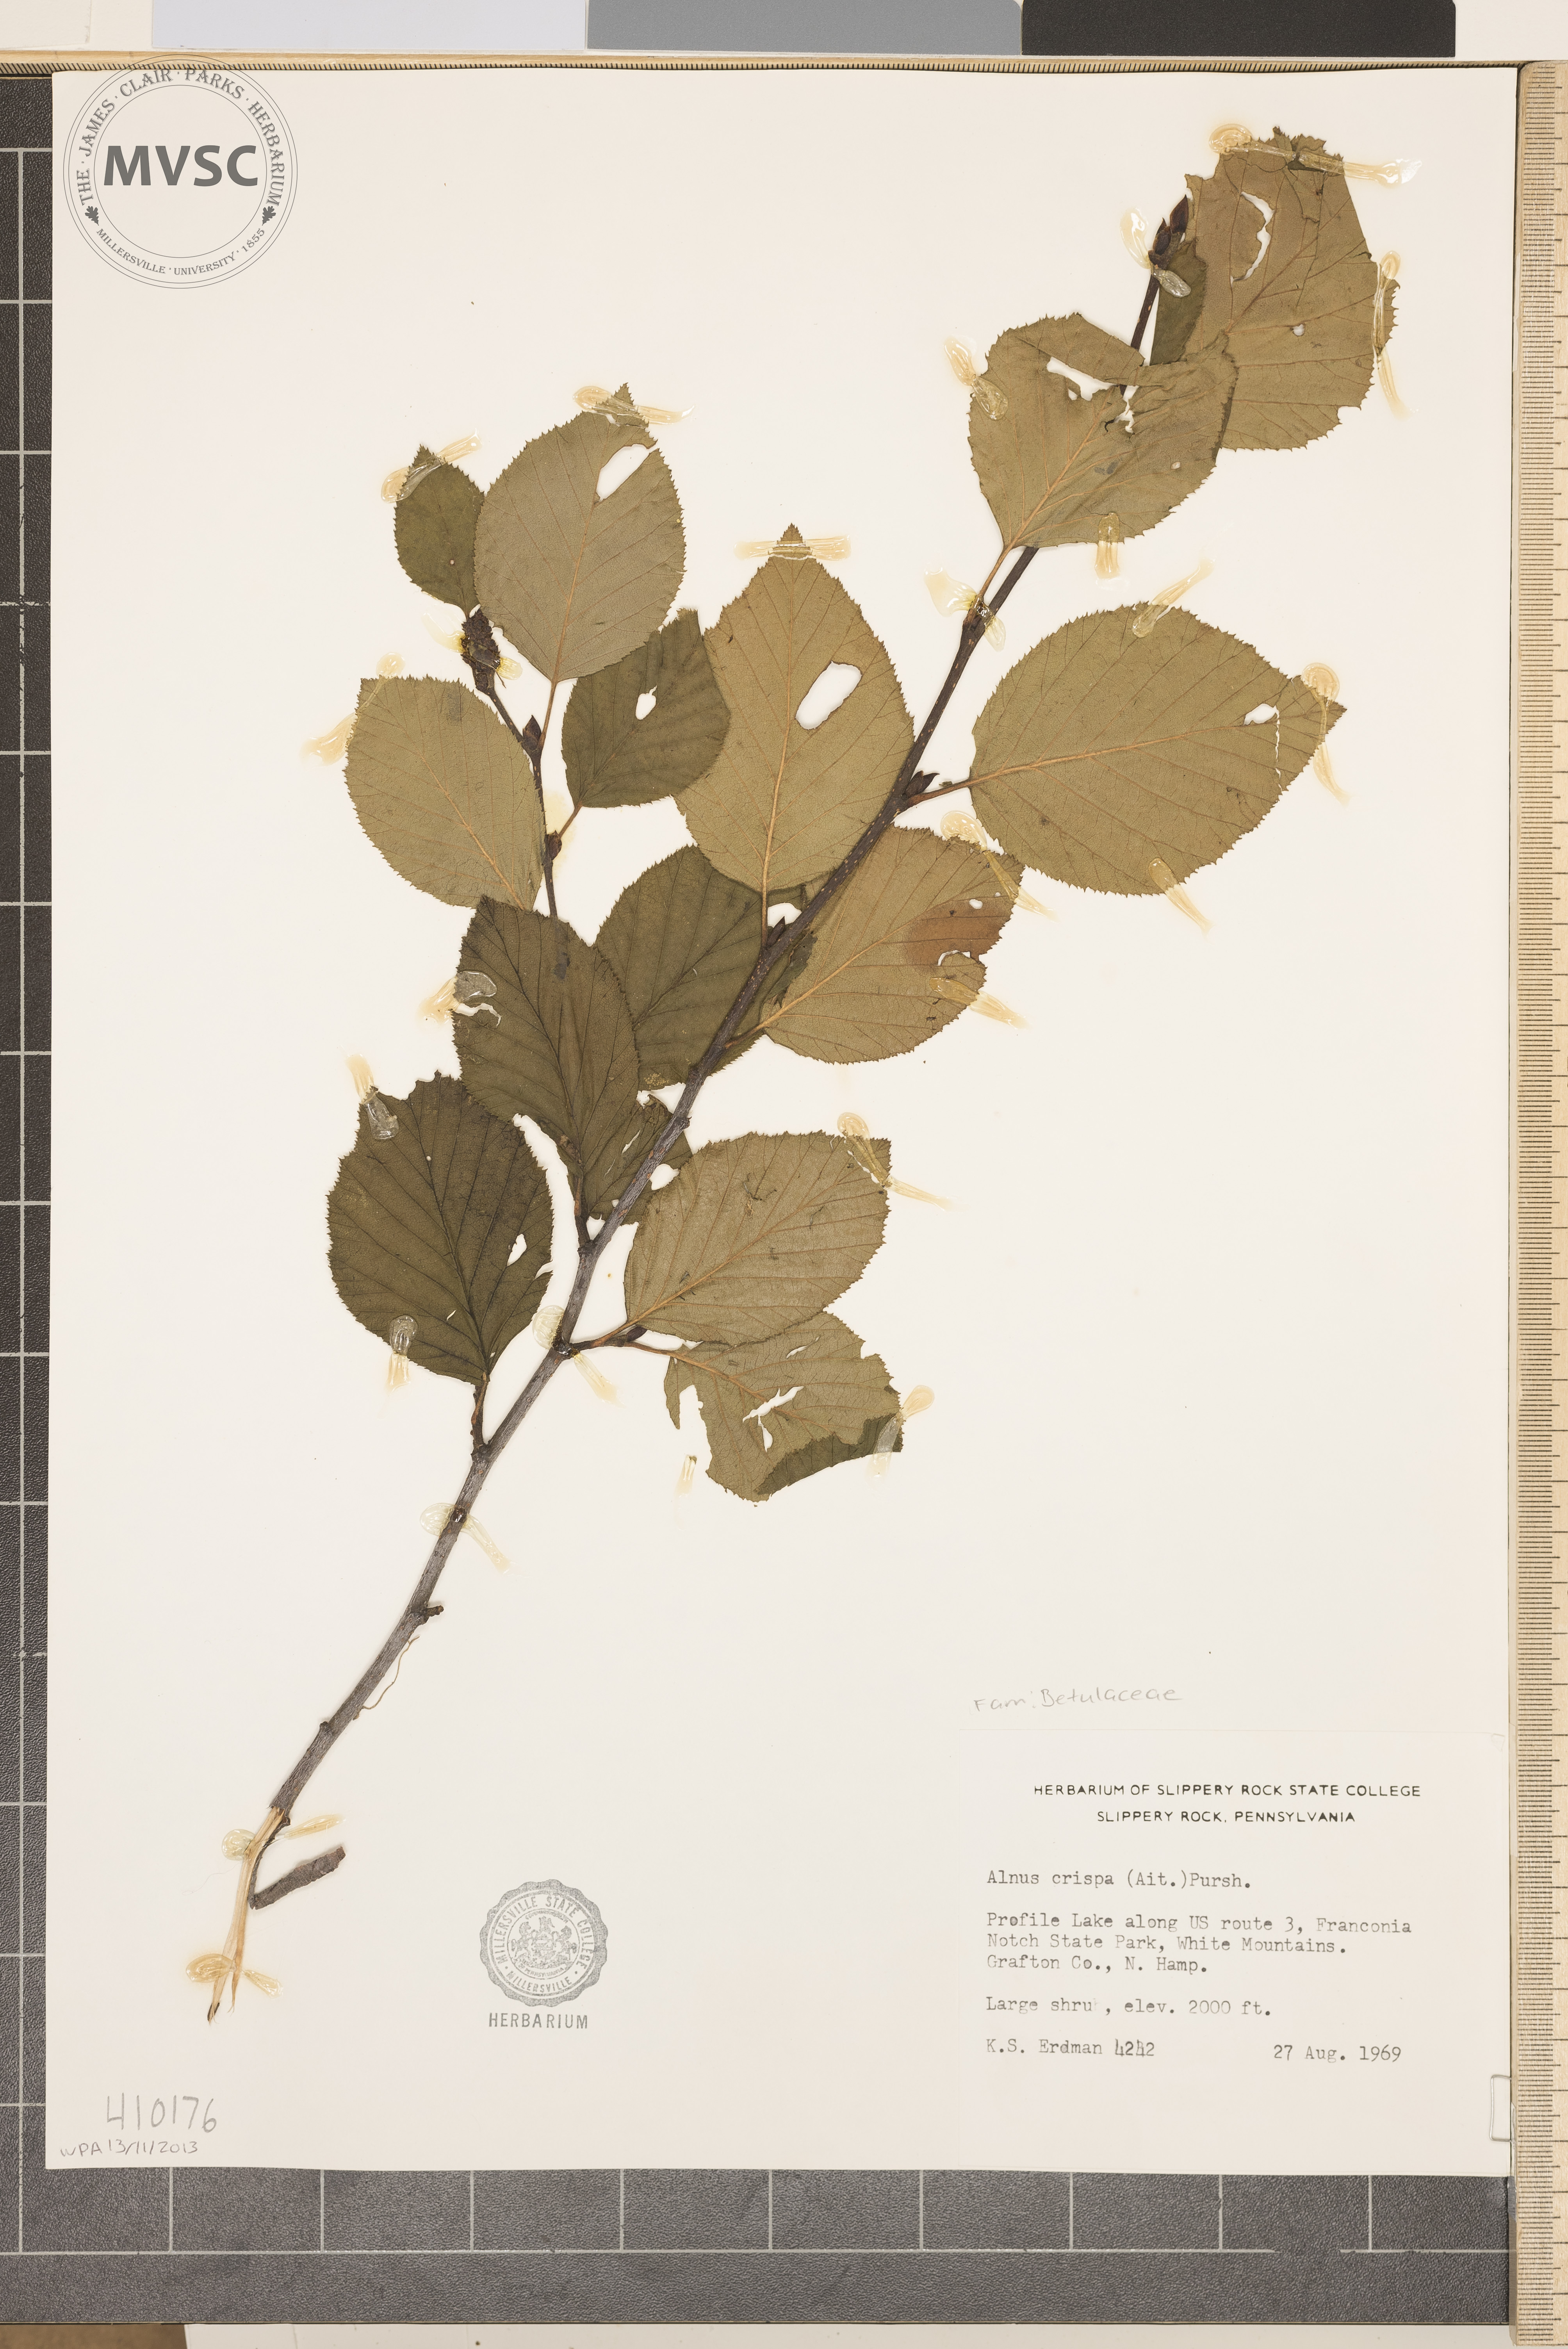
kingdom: Plantae
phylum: Tracheophyta
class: Magnoliopsida
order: Fagales
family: Betulaceae
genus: Alnus
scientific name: Alnus crispa
